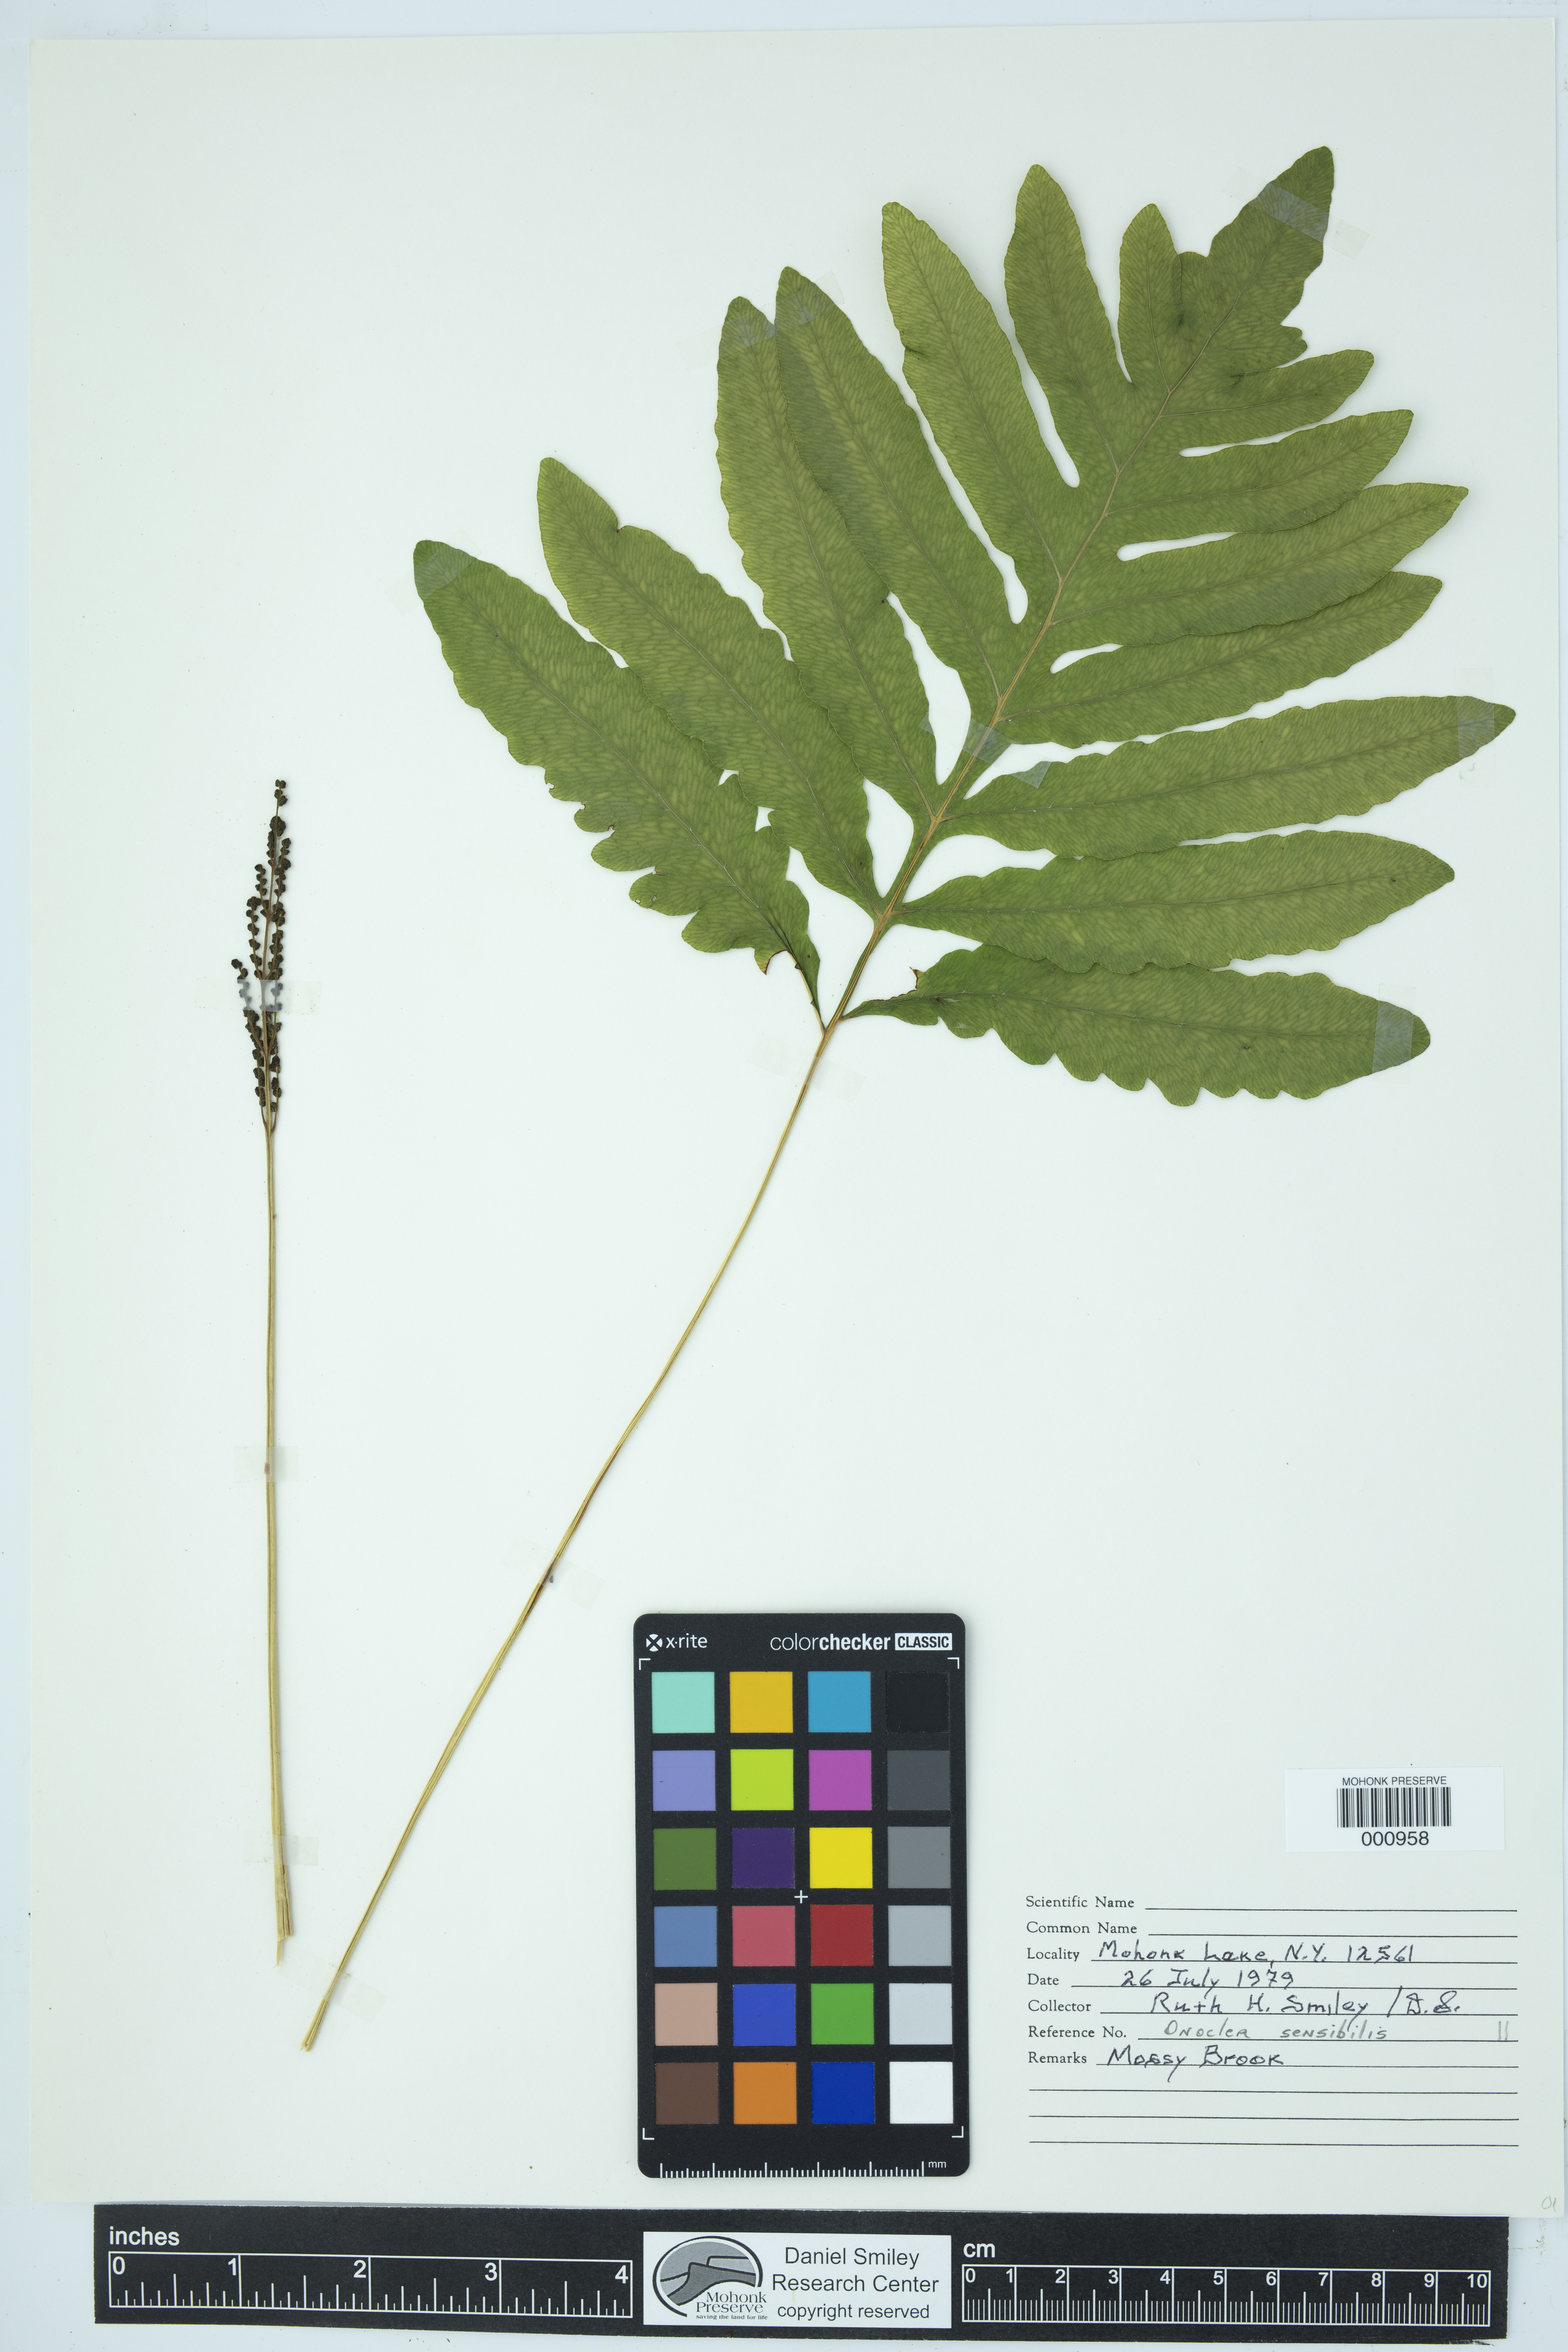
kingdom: Plantae
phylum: Tracheophyta
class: Polypodiopsida
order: Polypodiales
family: Onocleaceae
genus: Onoclea
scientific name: Onoclea sensibilis
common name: Sensitive fern
